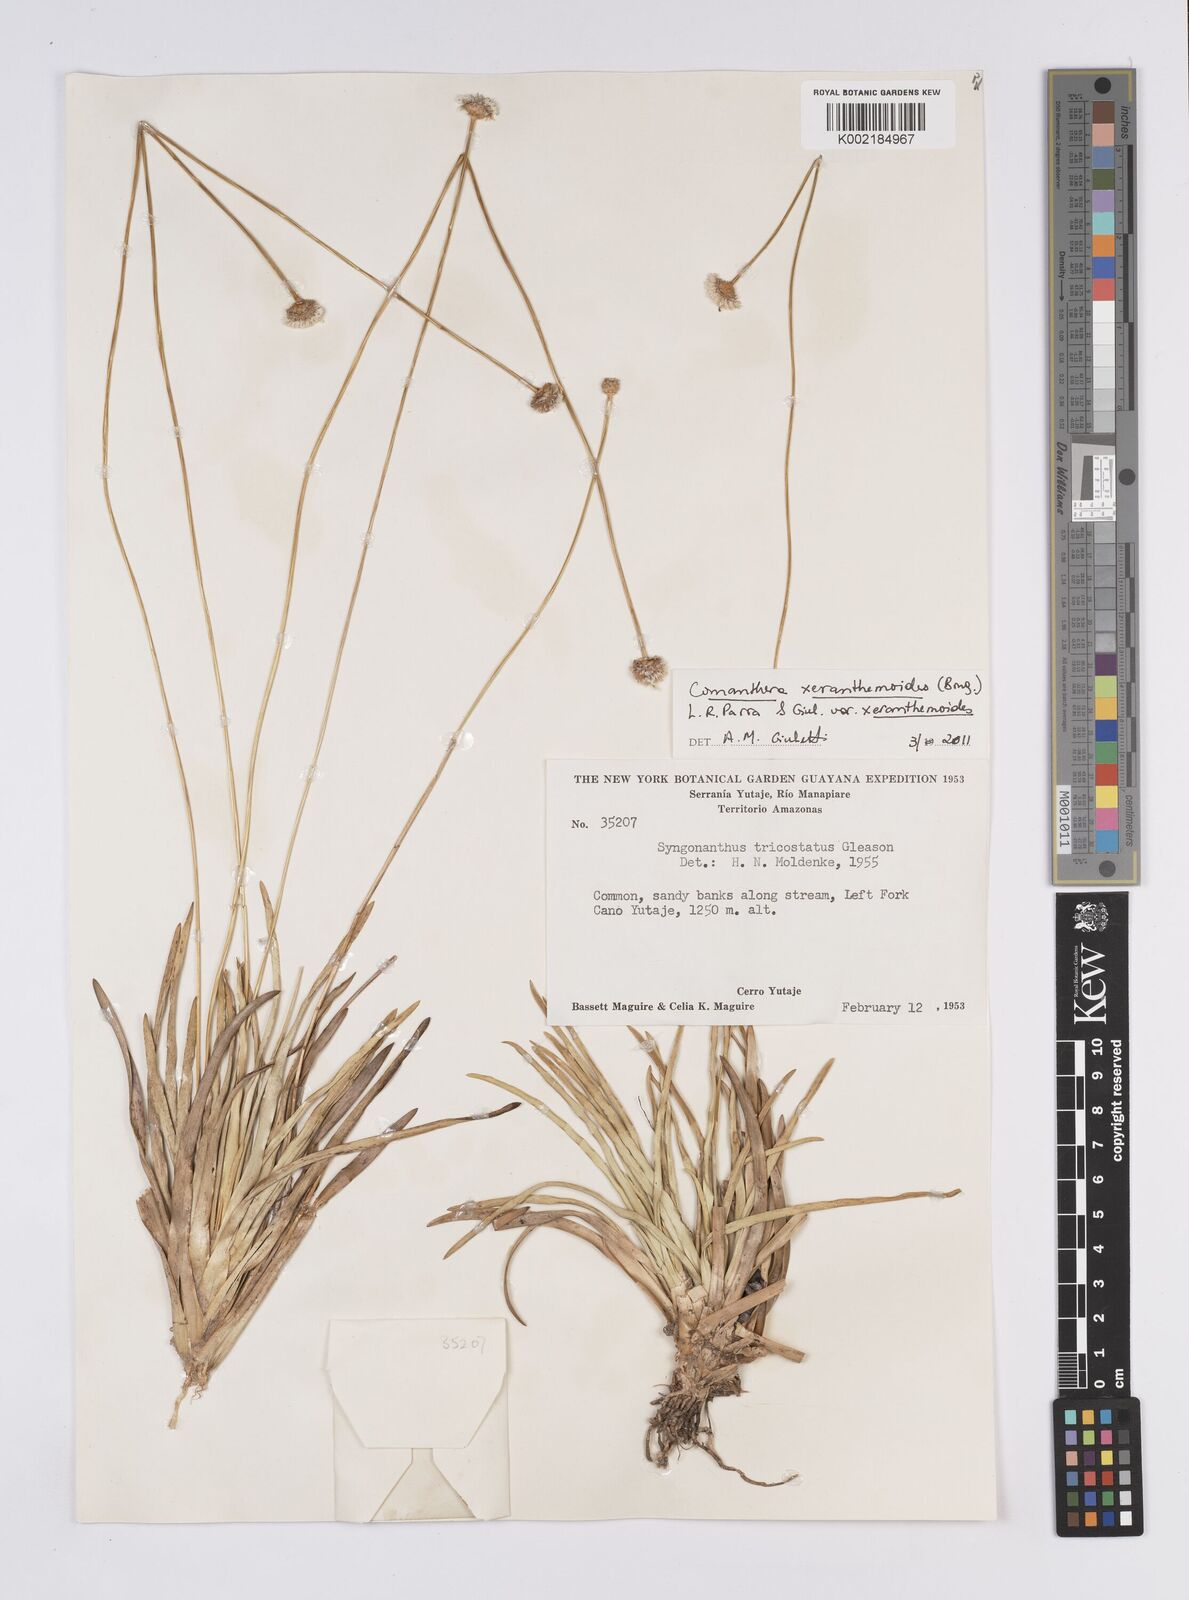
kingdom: Plantae
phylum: Tracheophyta
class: Liliopsida
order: Poales
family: Eriocaulaceae
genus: Comanthera
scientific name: Comanthera xeranthemoides
